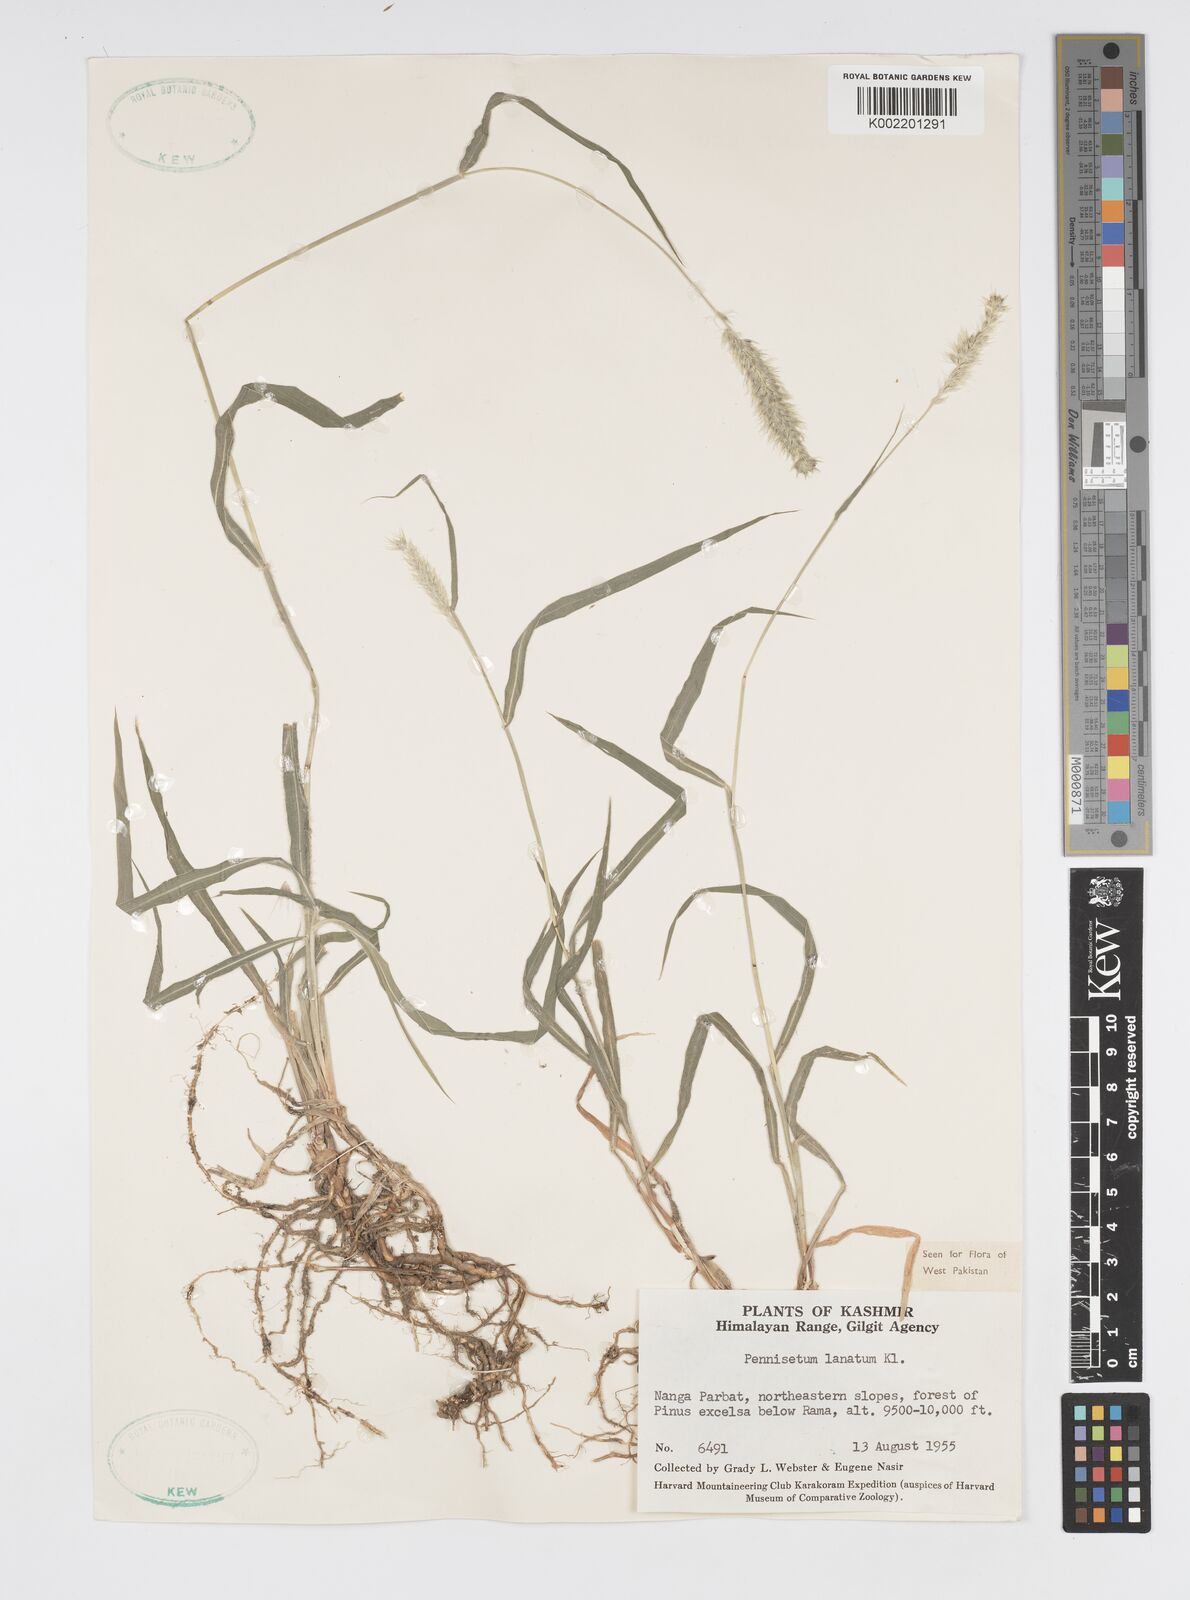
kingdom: Plantae
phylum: Tracheophyta
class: Liliopsida
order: Poales
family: Poaceae
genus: Cenchrus
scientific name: Cenchrus lanatus
